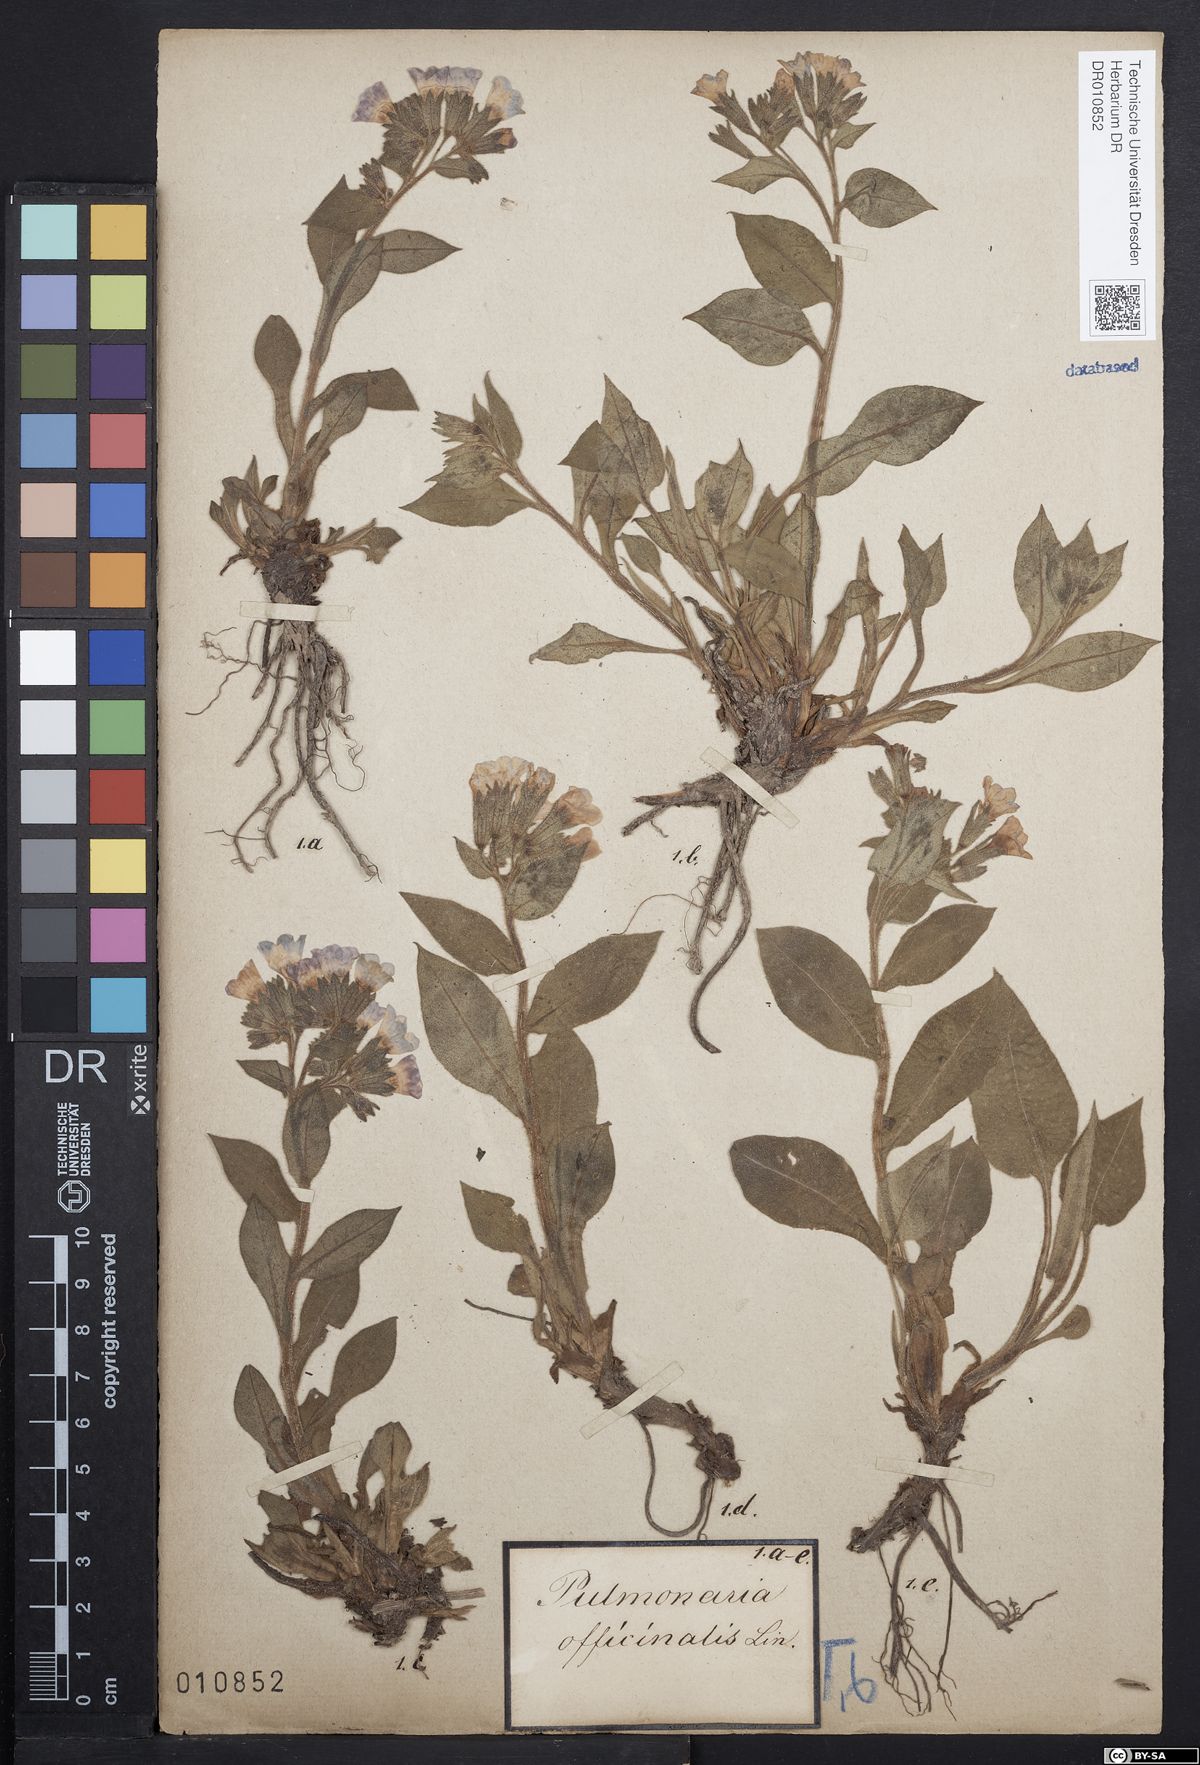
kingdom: Plantae
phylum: Tracheophyta
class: Magnoliopsida
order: Boraginales
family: Boraginaceae
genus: Pulmonaria
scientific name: Pulmonaria obscura
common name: Suffolk lungwort
